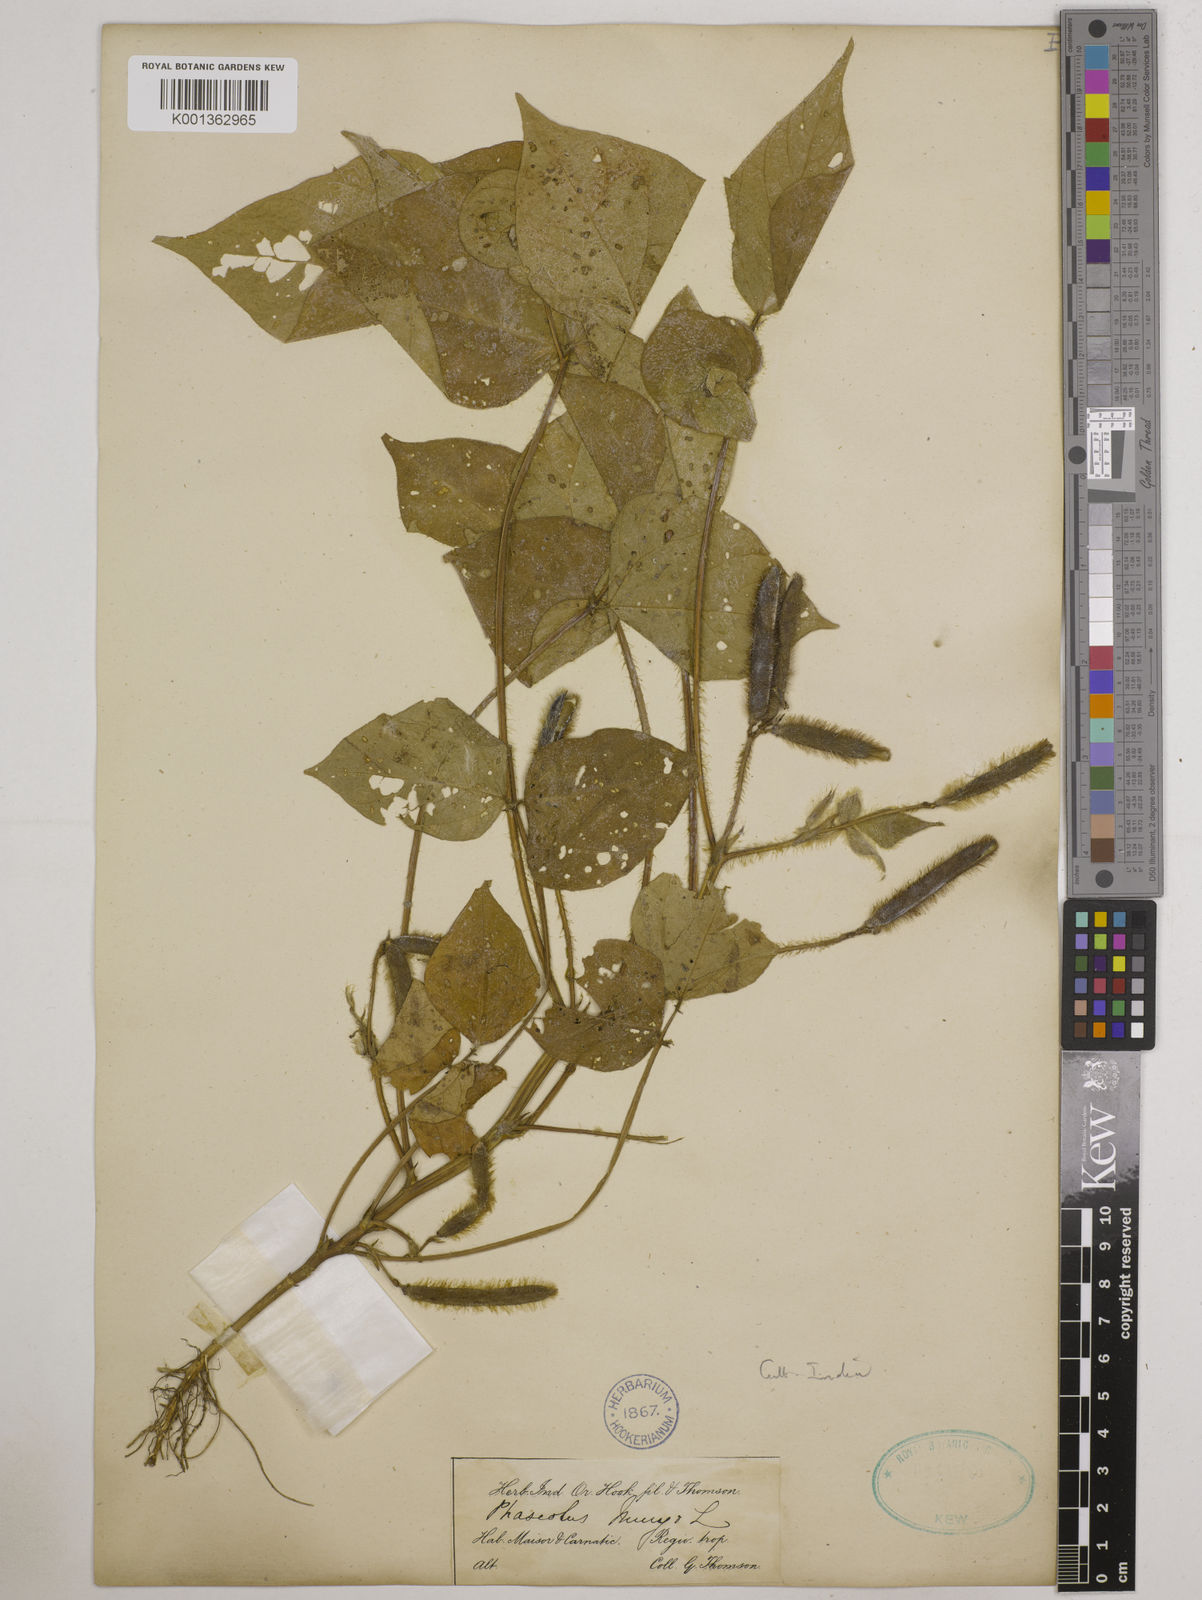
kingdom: Plantae
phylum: Tracheophyta
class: Magnoliopsida
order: Fabales
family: Fabaceae
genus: Vigna
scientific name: Vigna mungo
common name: Black gram
